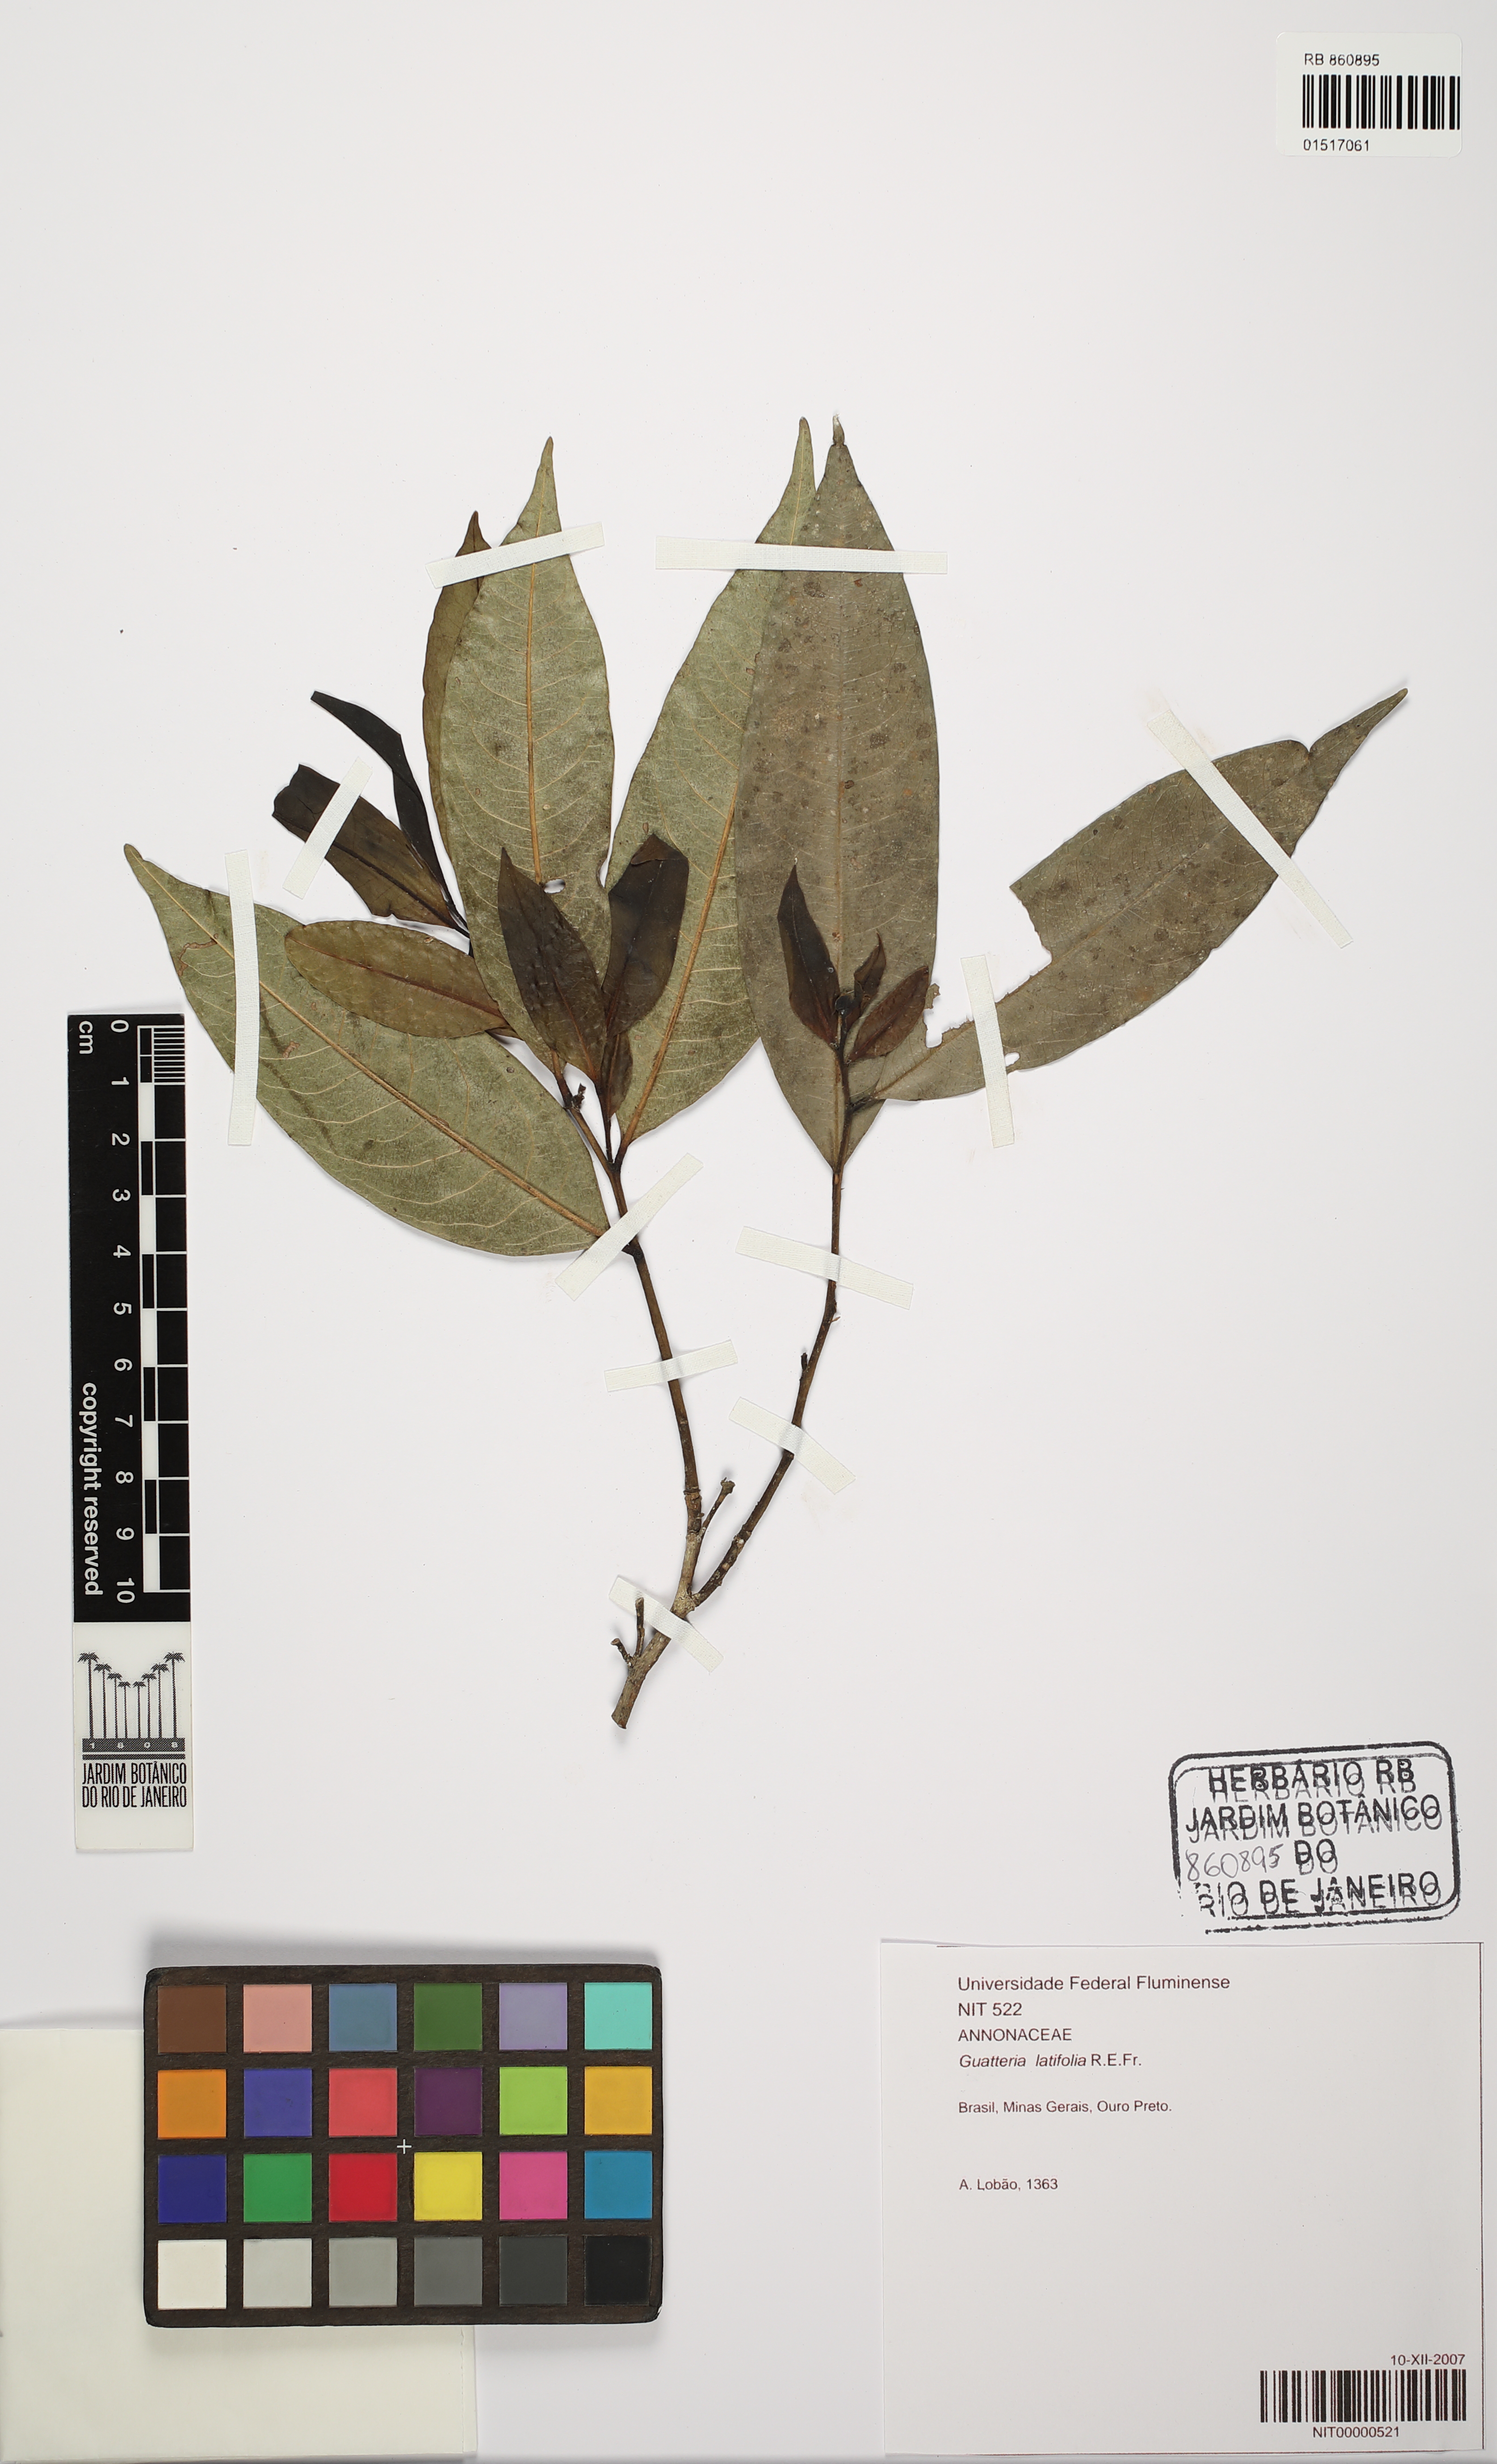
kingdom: Plantae
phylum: Tracheophyta
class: Magnoliopsida
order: Magnoliales
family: Annonaceae
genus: Guatteria
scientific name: Guatteria latifolia
